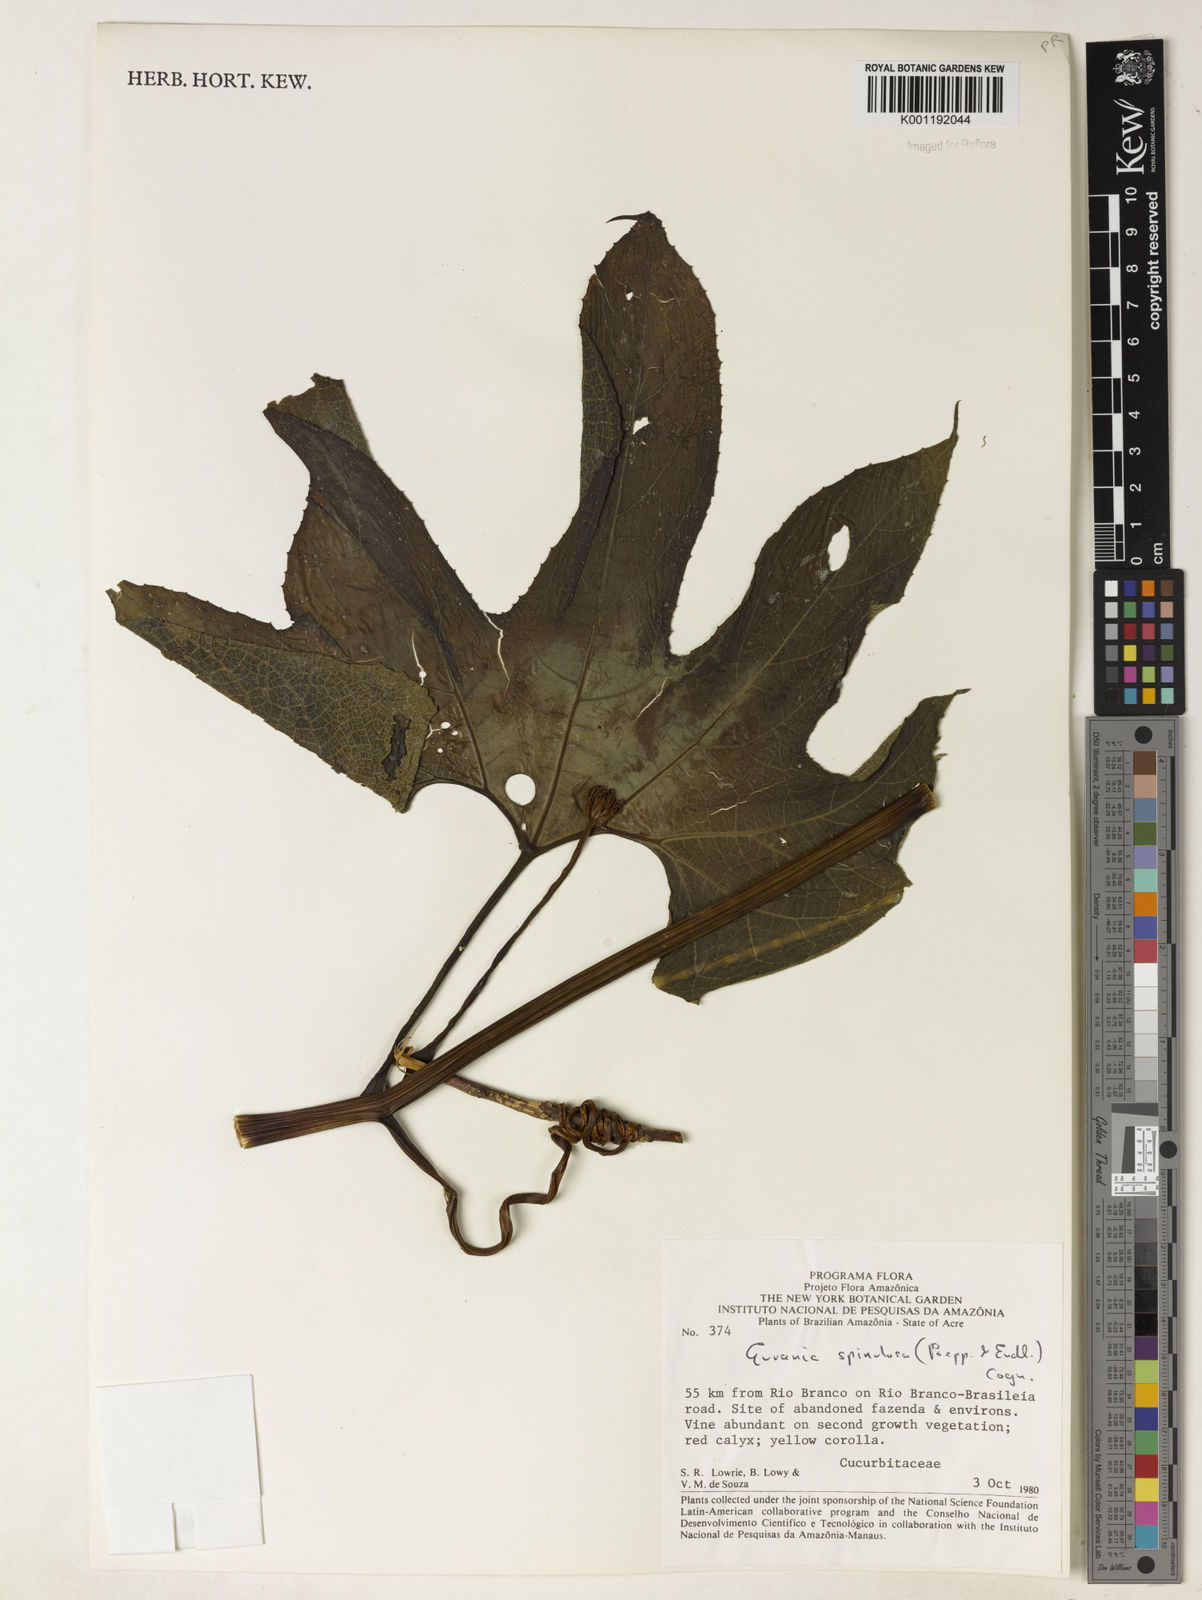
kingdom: Plantae
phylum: Tracheophyta
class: Magnoliopsida
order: Cucurbitales
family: Cucurbitaceae
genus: Gurania
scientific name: Gurania lobata
